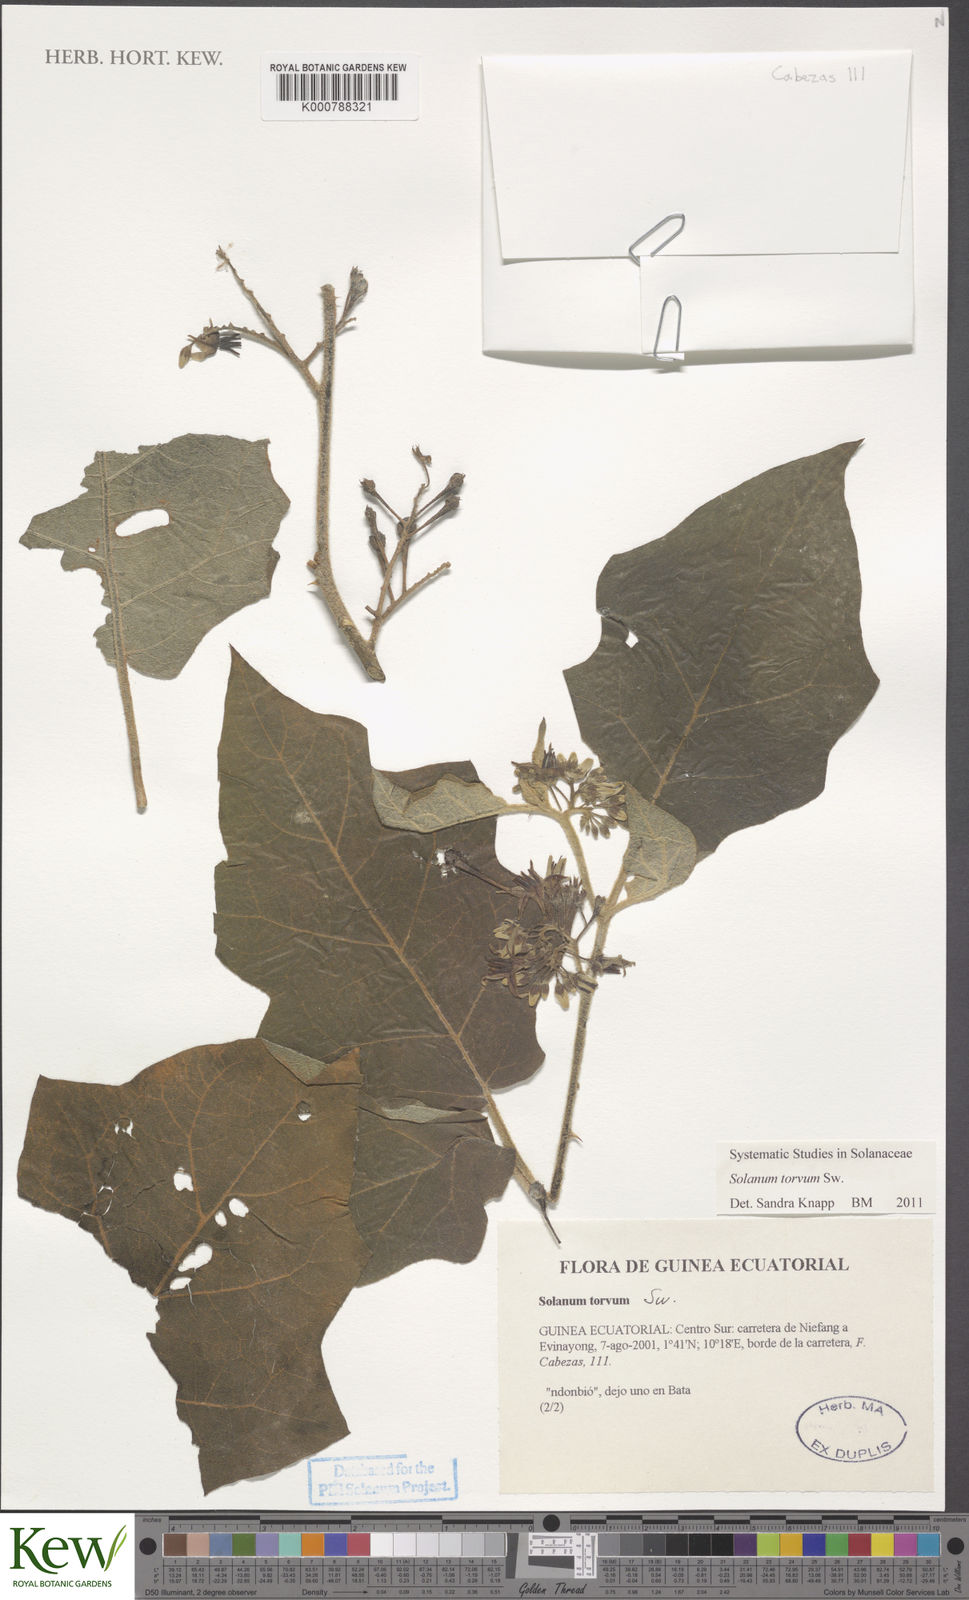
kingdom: Plantae
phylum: Tracheophyta
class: Magnoliopsida
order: Solanales
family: Solanaceae
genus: Solanum
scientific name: Solanum torvum
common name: Turkey berry
